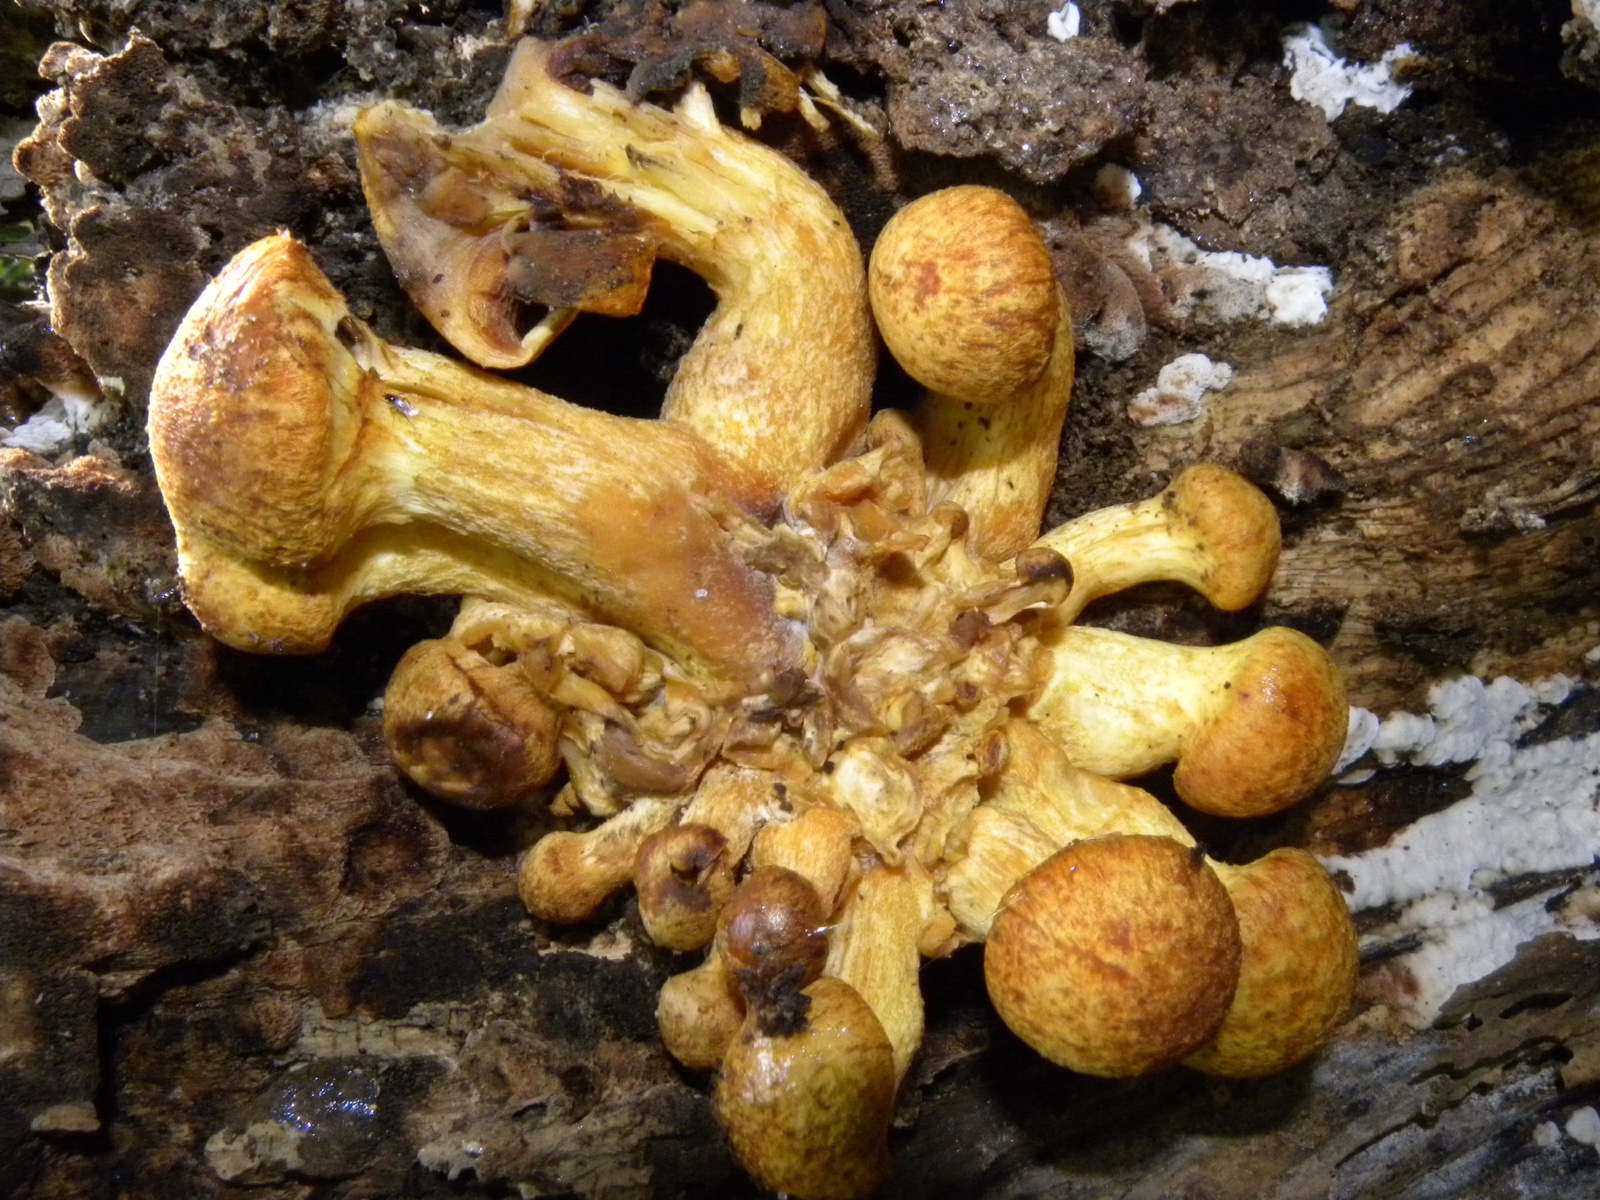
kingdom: Fungi
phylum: Basidiomycota
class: Agaricomycetes
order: Agaricales
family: Hymenogastraceae
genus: Gymnopilus
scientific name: Gymnopilus spectabilis
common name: fibret flammehat
